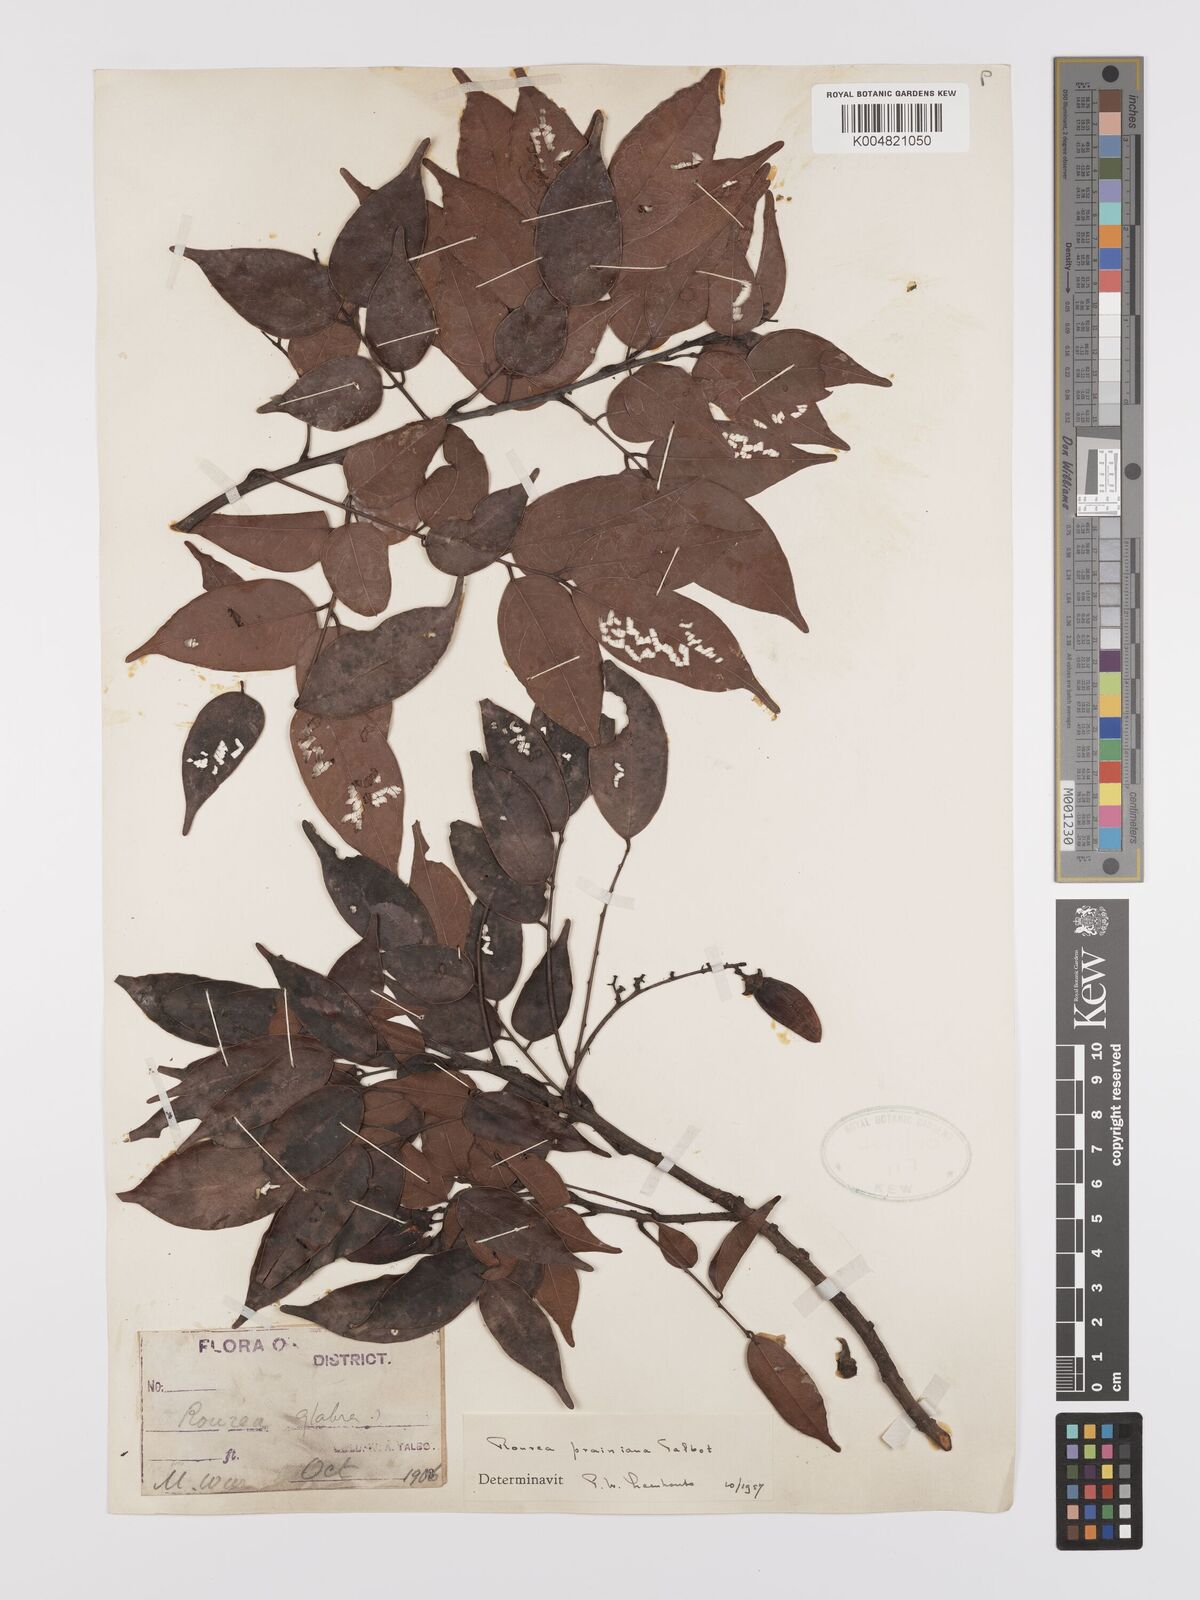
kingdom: Plantae
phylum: Tracheophyta
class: Magnoliopsida
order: Oxalidales
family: Connaraceae
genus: Rourea
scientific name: Rourea prainiana
